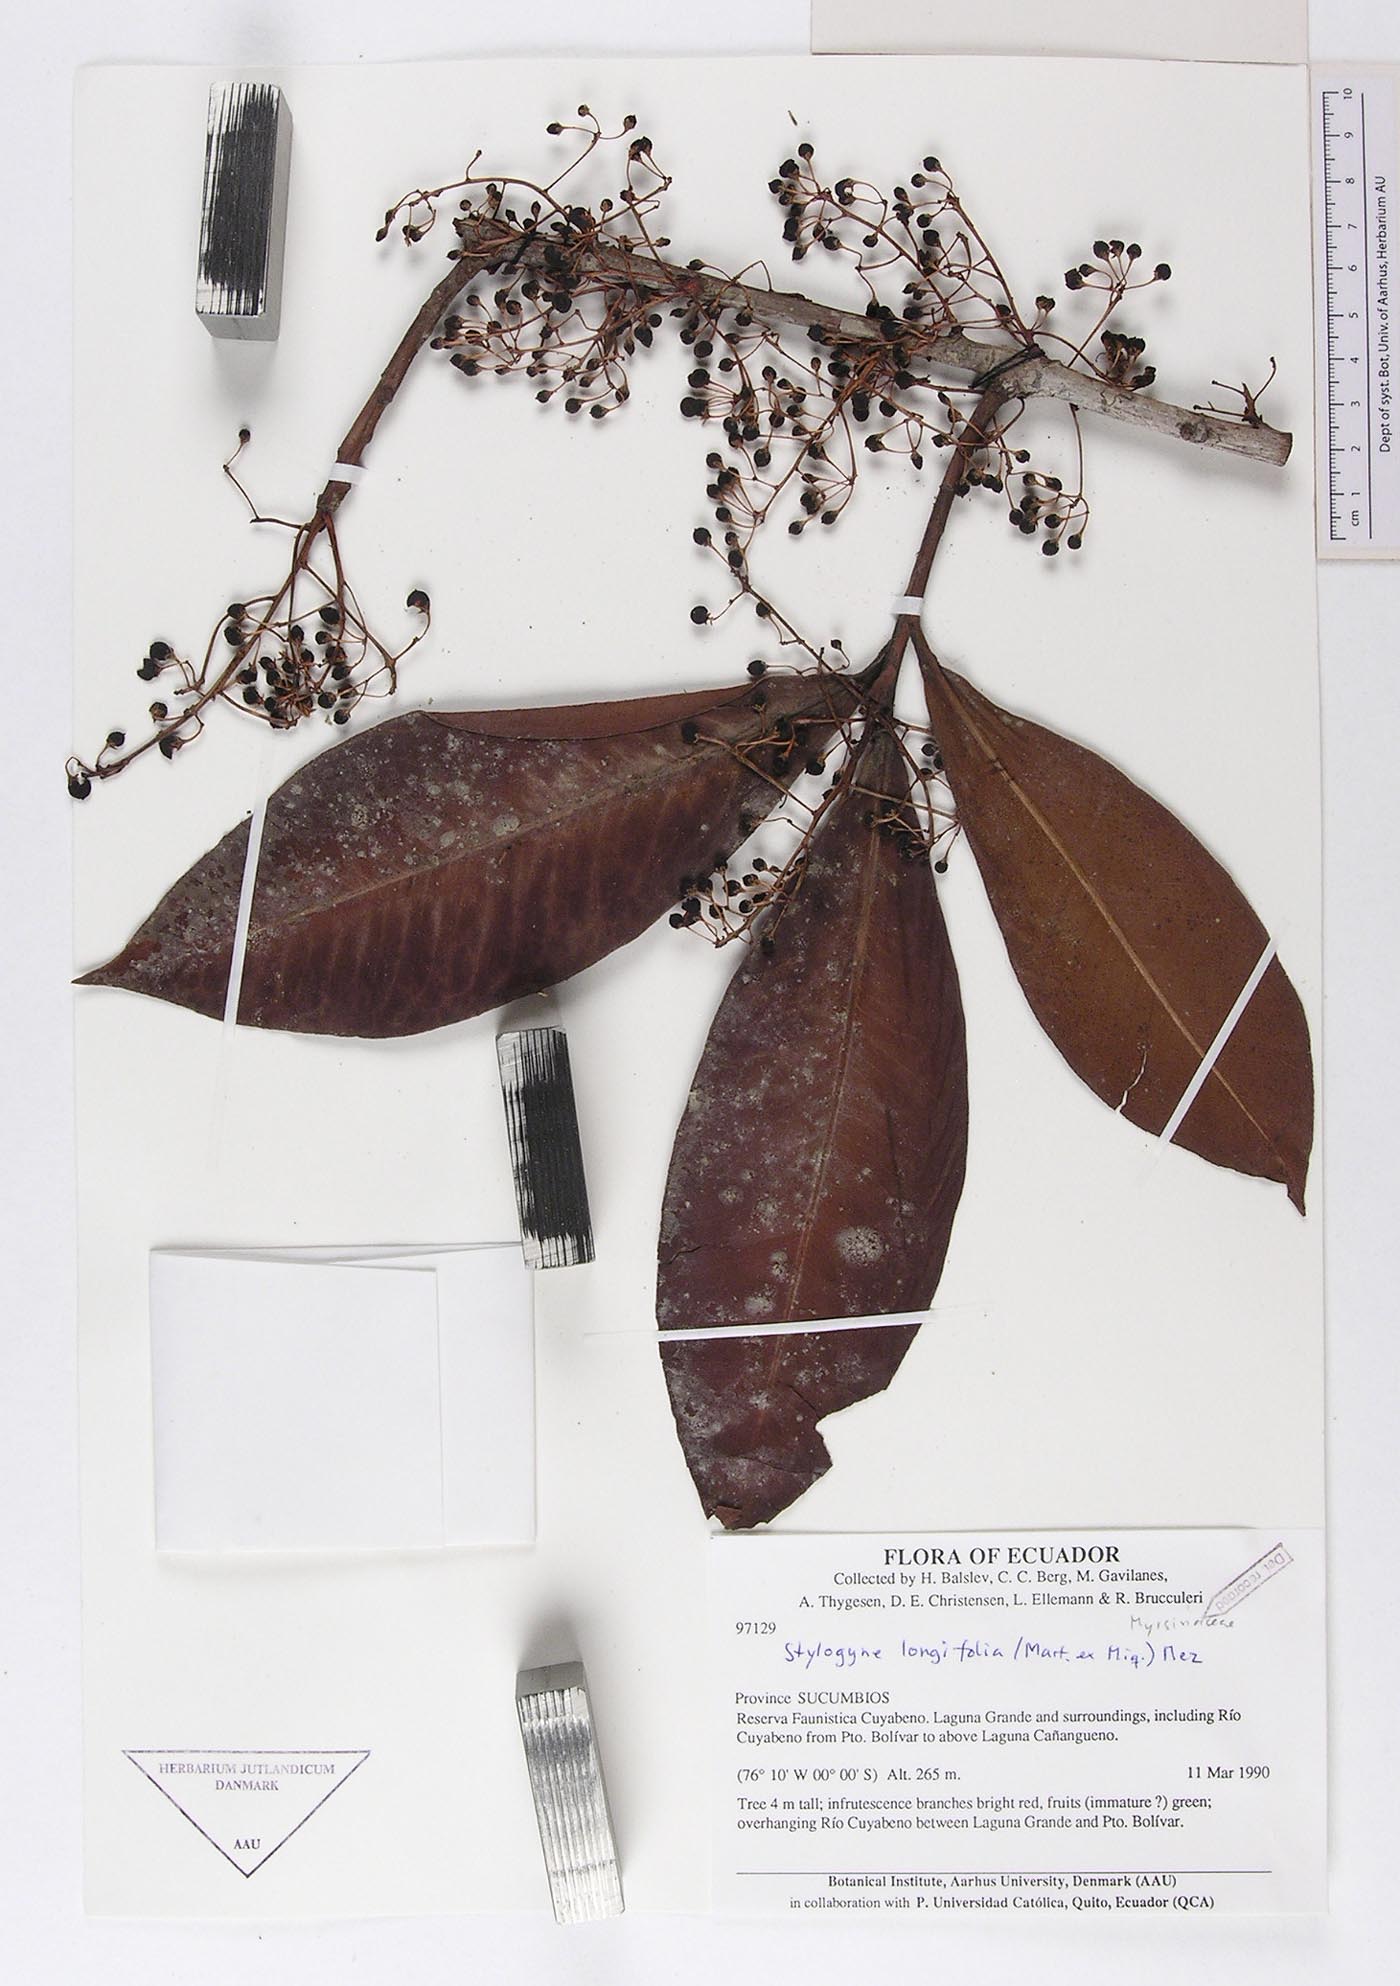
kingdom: Plantae
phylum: Tracheophyta
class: Magnoliopsida
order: Ericales
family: Primulaceae
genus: Stylogyne
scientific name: Stylogyne longifolia
